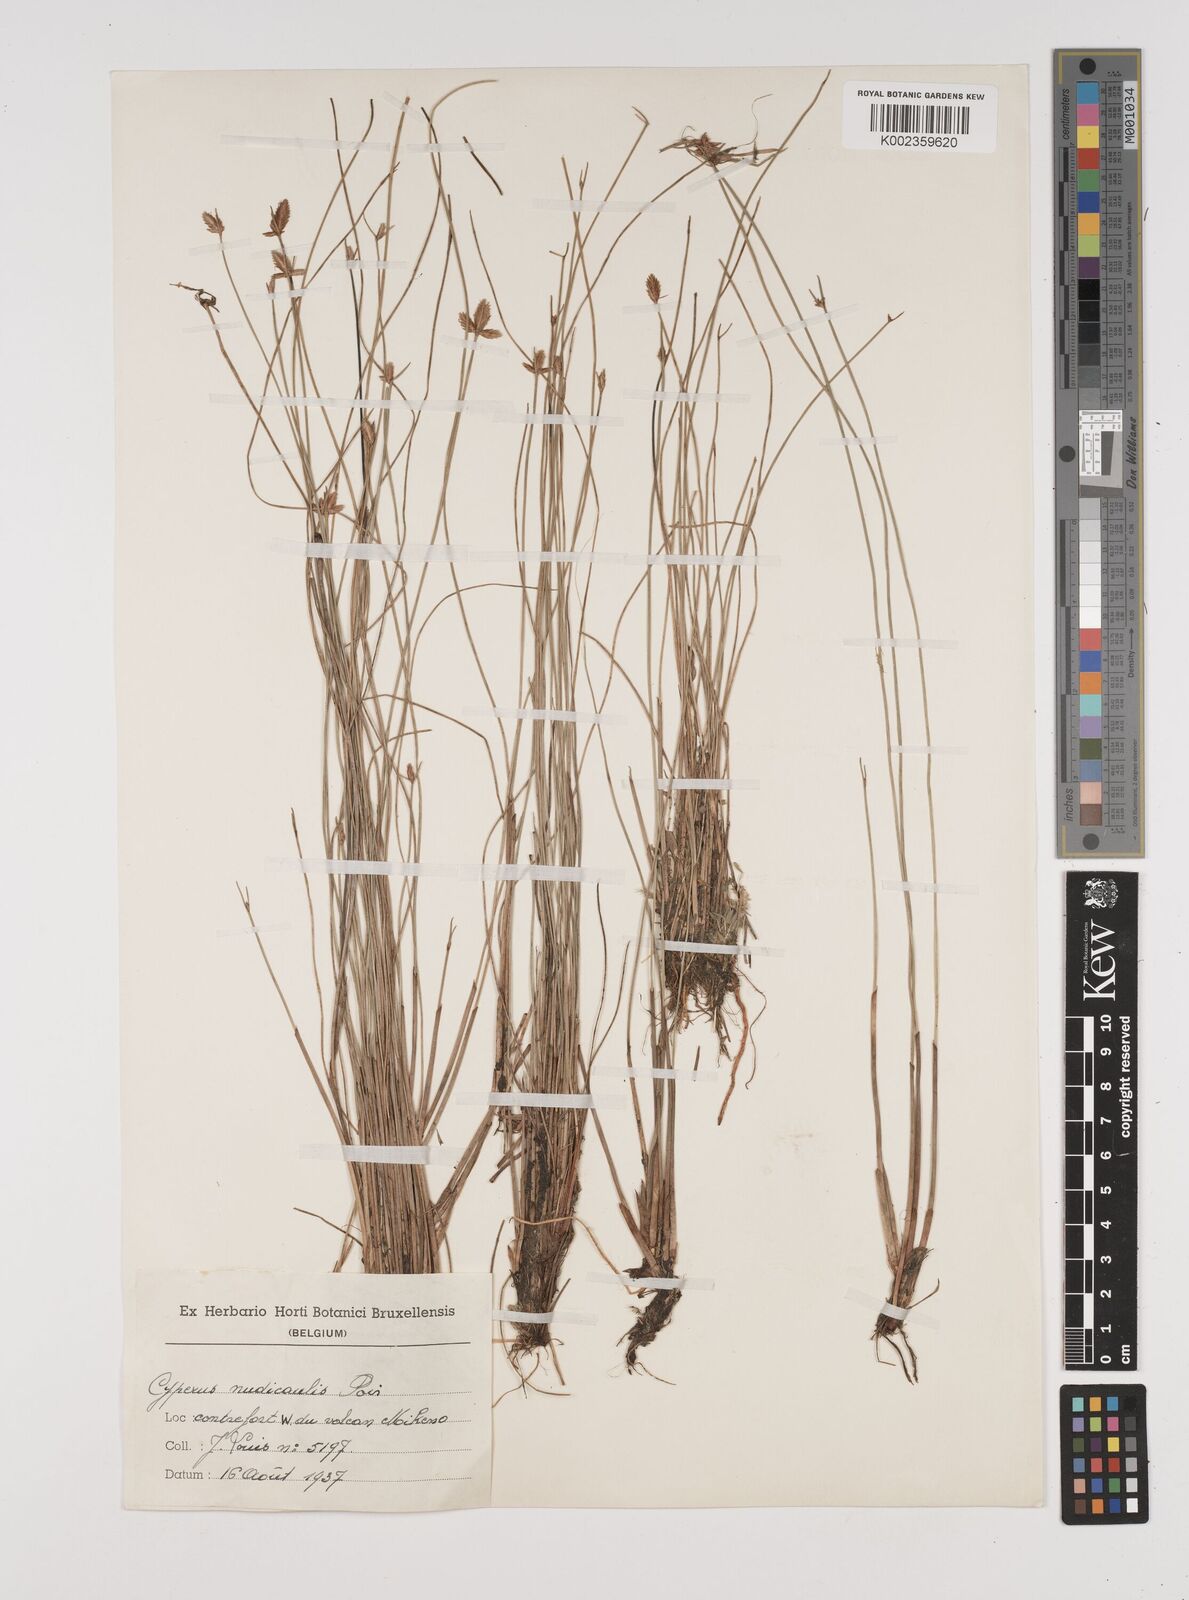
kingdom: Plantae
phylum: Tracheophyta
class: Liliopsida
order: Poales
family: Cyperaceae
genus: Cyperus
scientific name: Cyperus pectinatus
